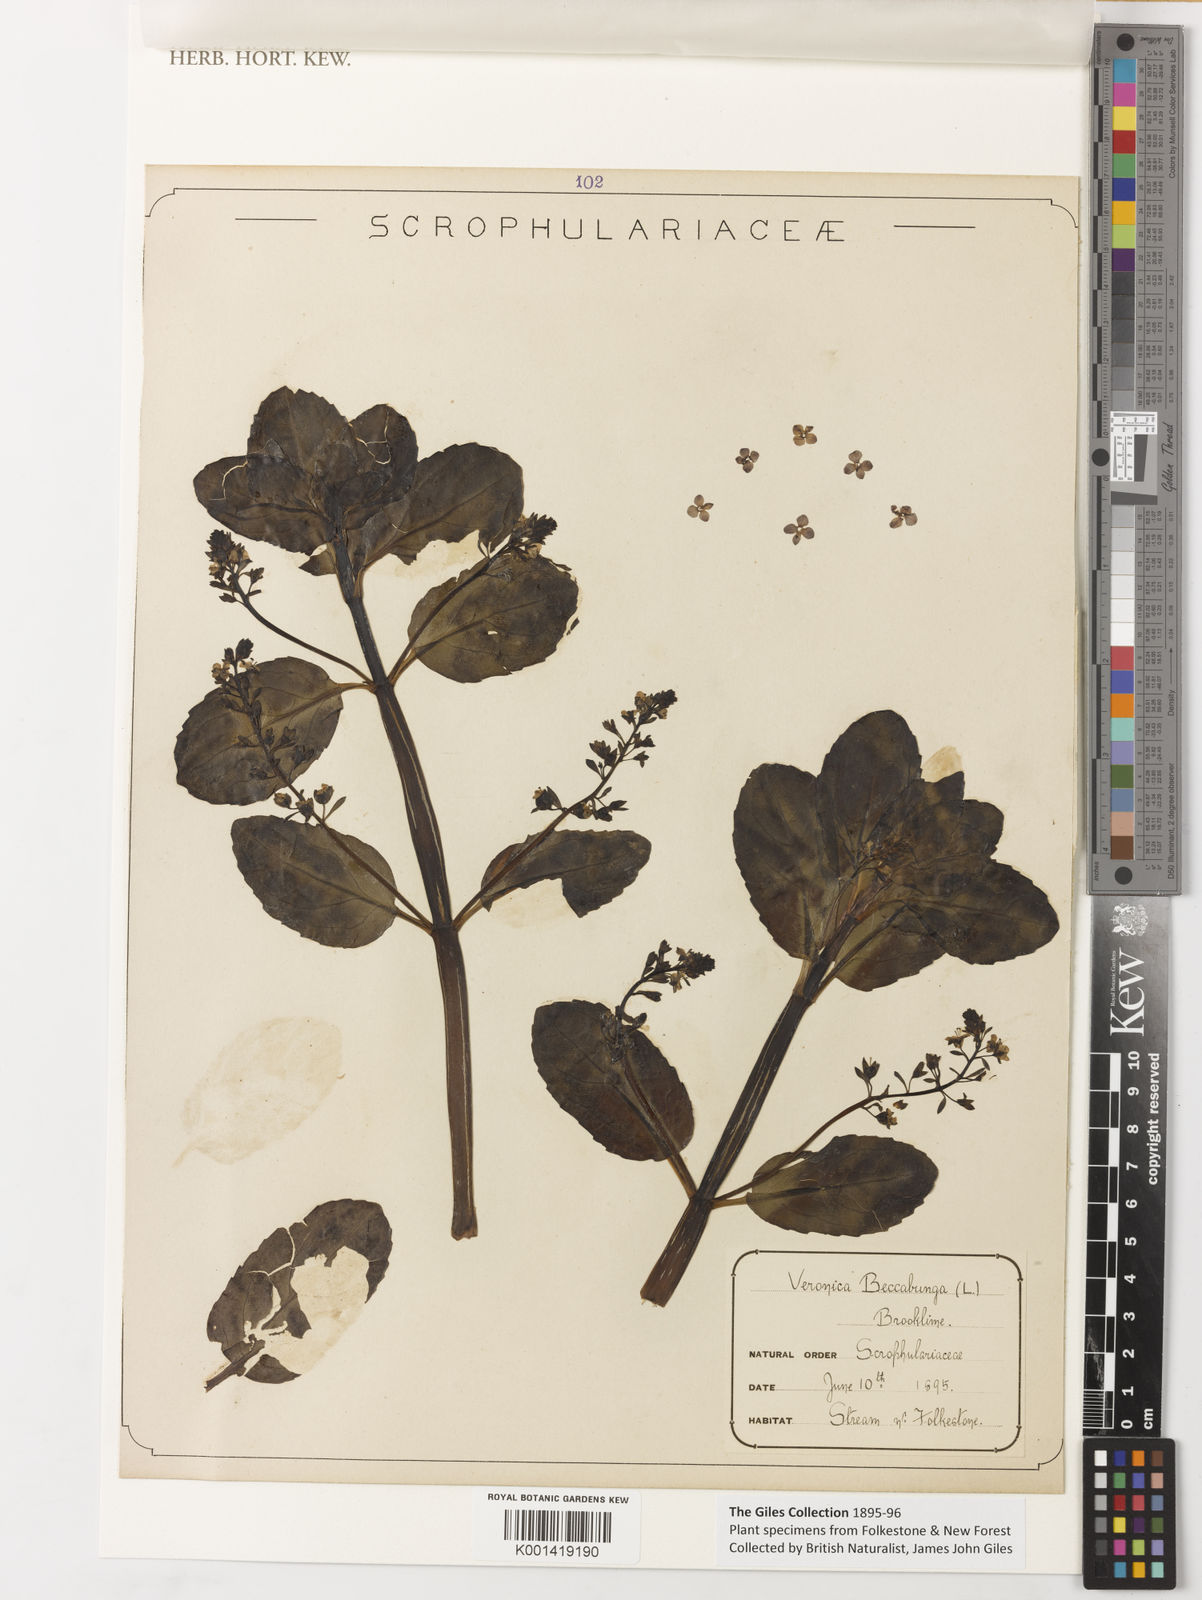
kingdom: Plantae
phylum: Tracheophyta
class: Magnoliopsida
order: Lamiales
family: Plantaginaceae
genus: Veronica
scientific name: Veronica beccabunga
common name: Brooklime
